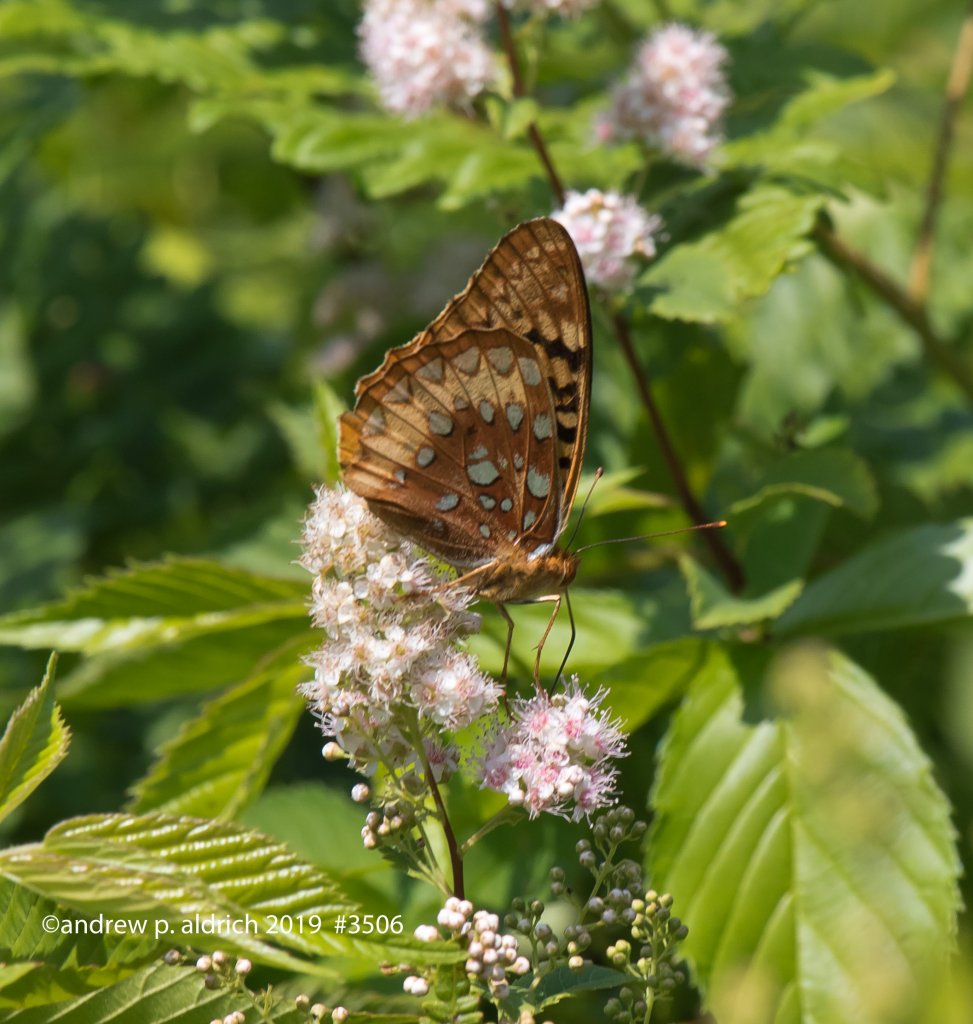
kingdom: Animalia
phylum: Arthropoda
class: Insecta
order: Lepidoptera
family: Nymphalidae
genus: Speyeria
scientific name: Speyeria cybele
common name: Great Spangled Fritillary
